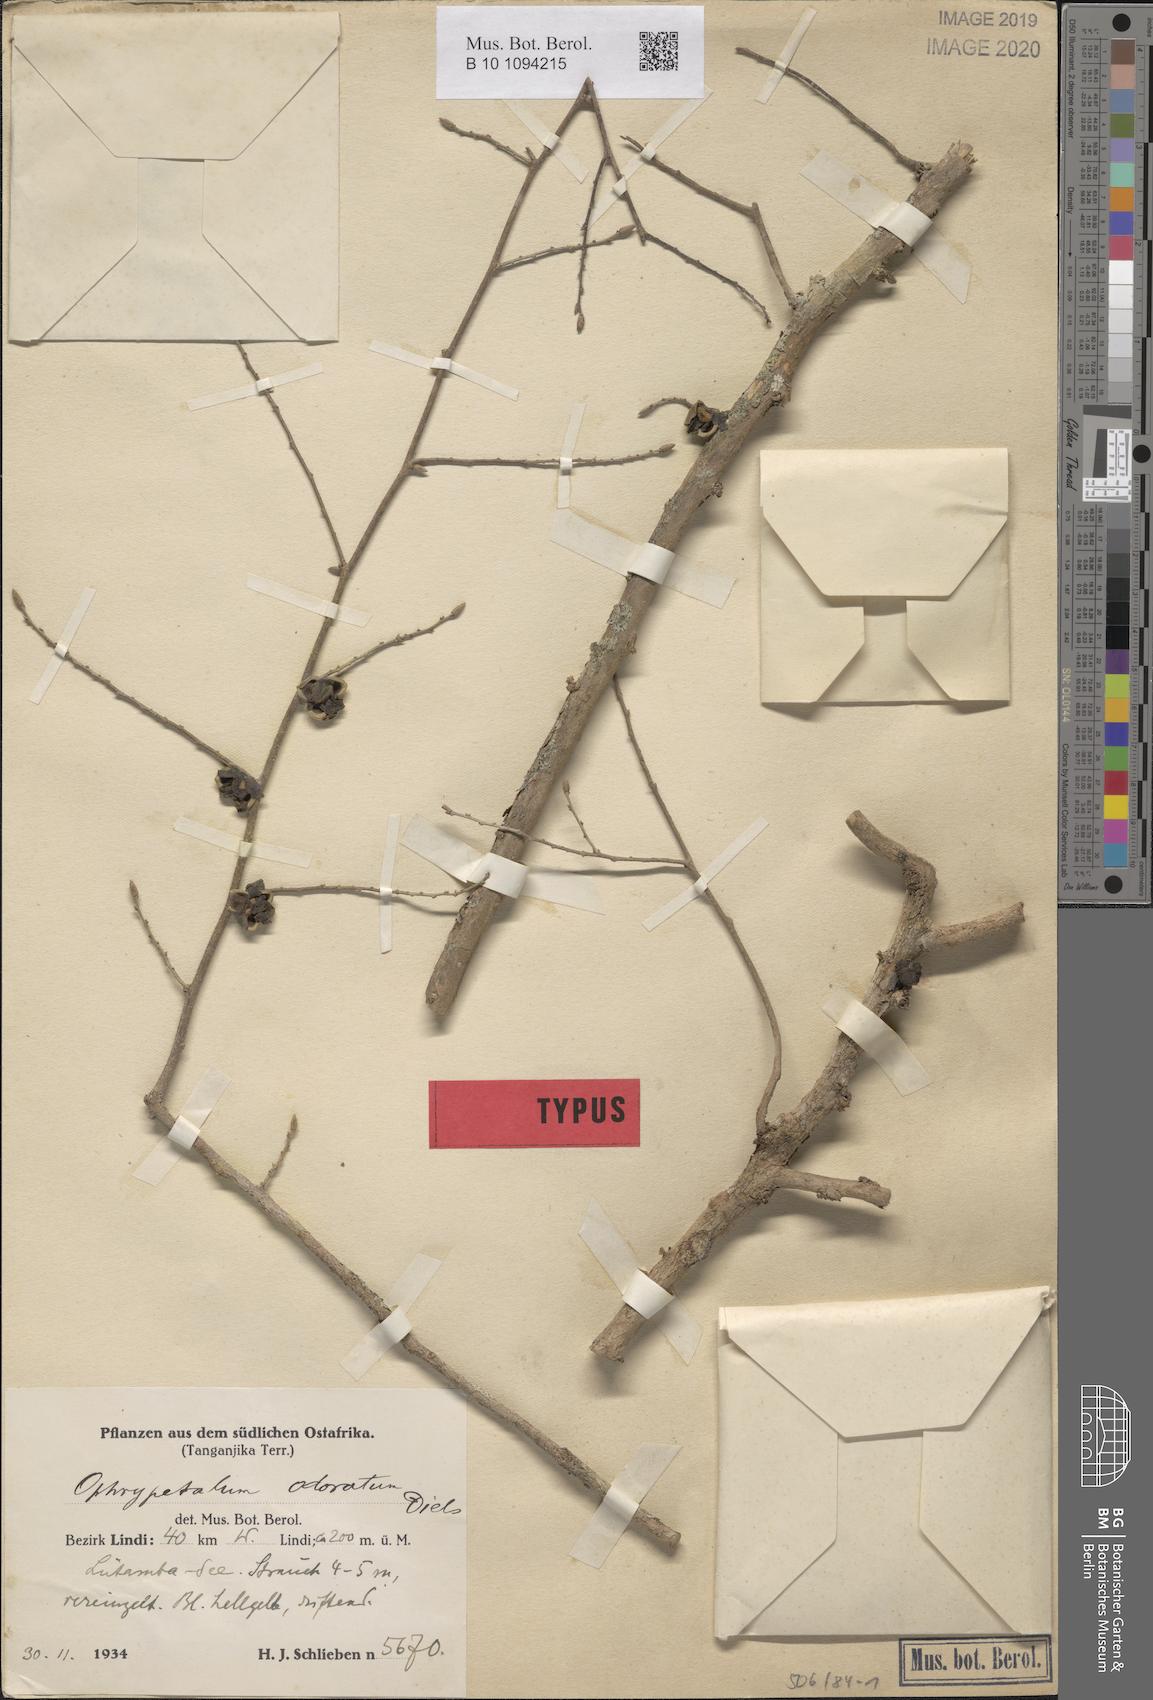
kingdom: Plantae
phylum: Tracheophyta
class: Magnoliopsida
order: Magnoliales
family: Annonaceae
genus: Ophrypetalum
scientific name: Ophrypetalum odoratum
